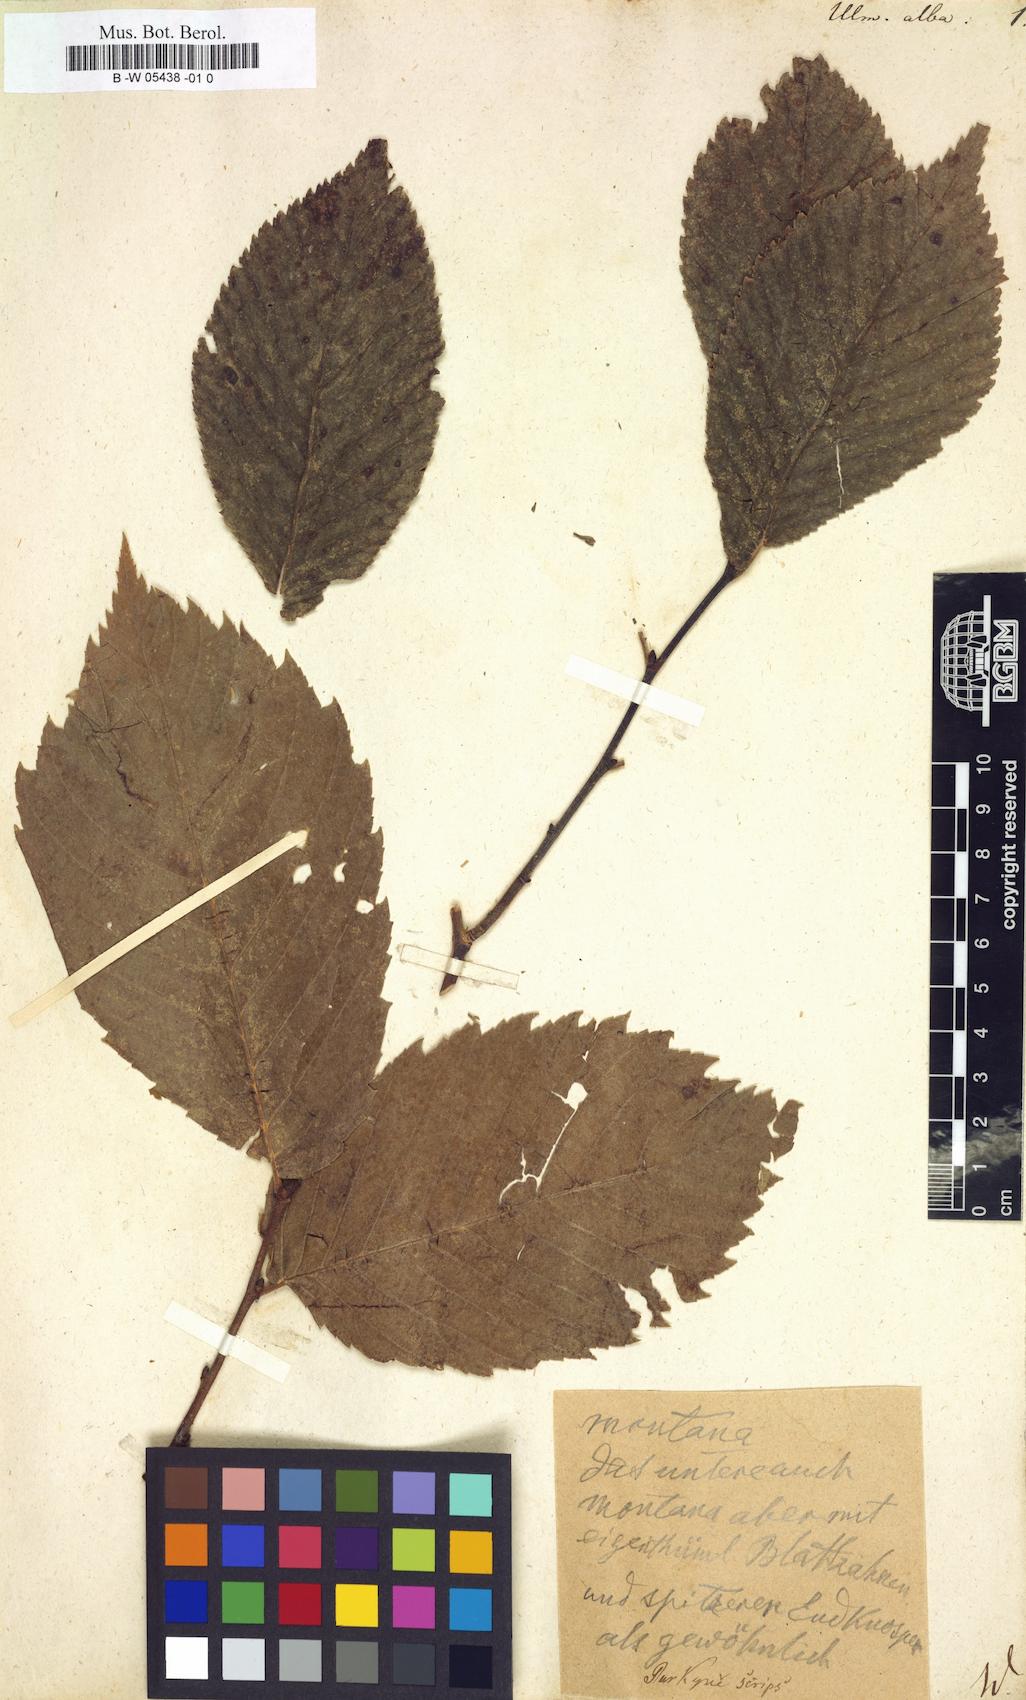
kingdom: Plantae
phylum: Tracheophyta
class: Magnoliopsida
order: Rosales
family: Ulmaceae
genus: Ulmus
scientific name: Ulmus
